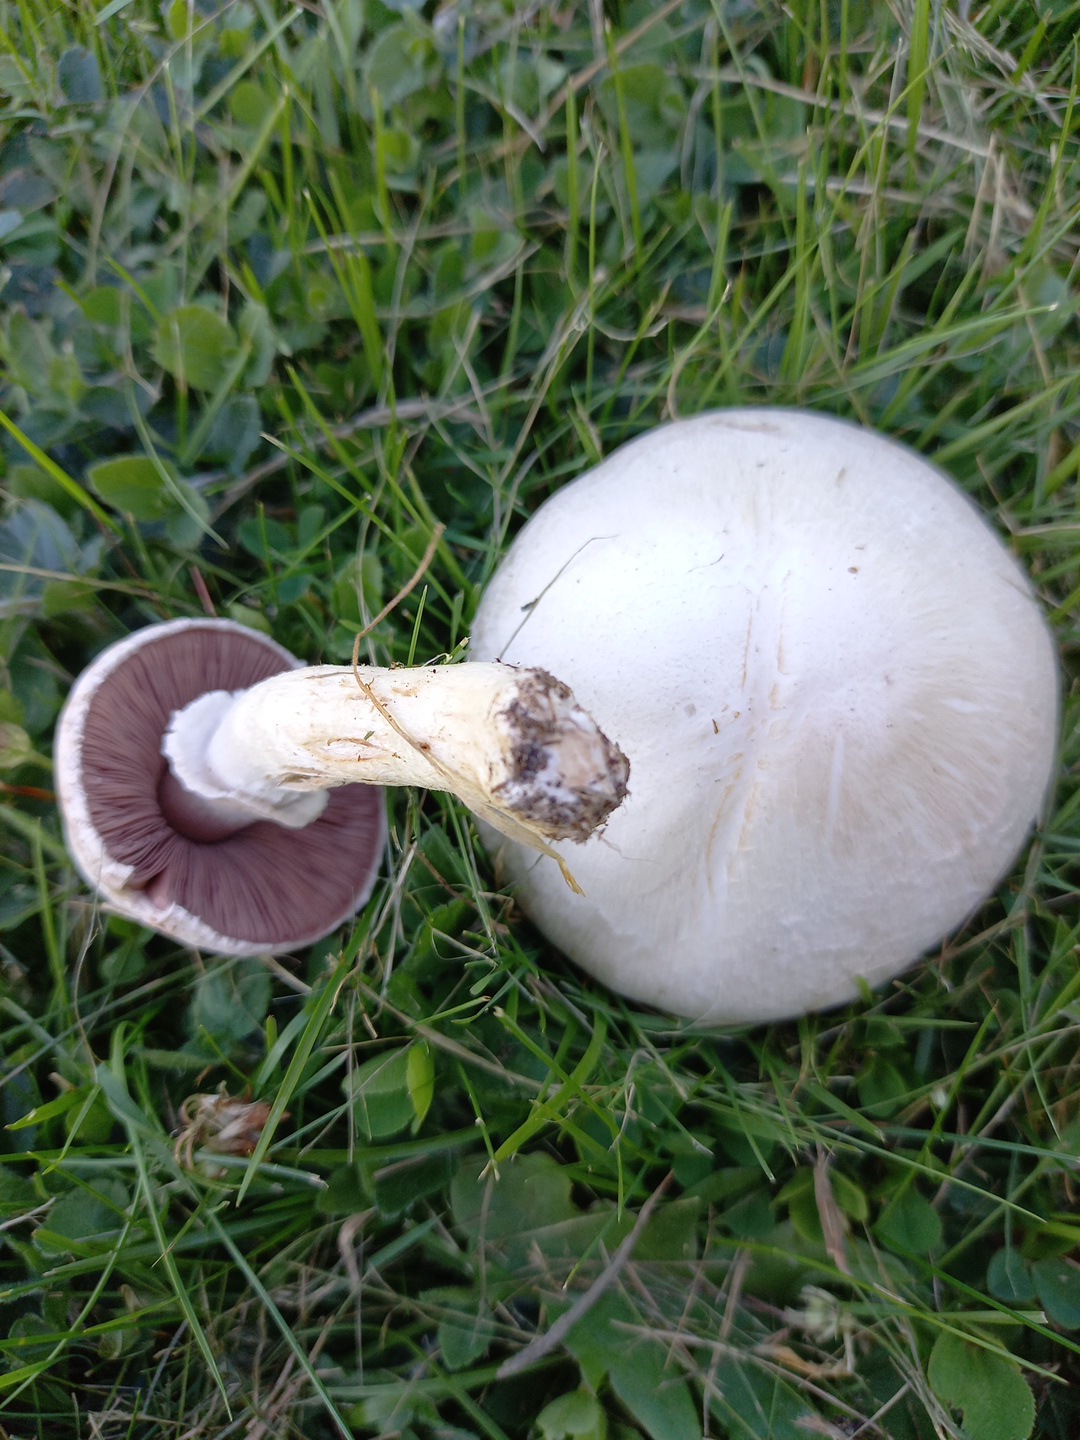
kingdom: Fungi
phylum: Basidiomycota
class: Agaricomycetes
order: Agaricales
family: Agaricaceae
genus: Agaricus
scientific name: Agaricus campestris
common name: mark-champignon
